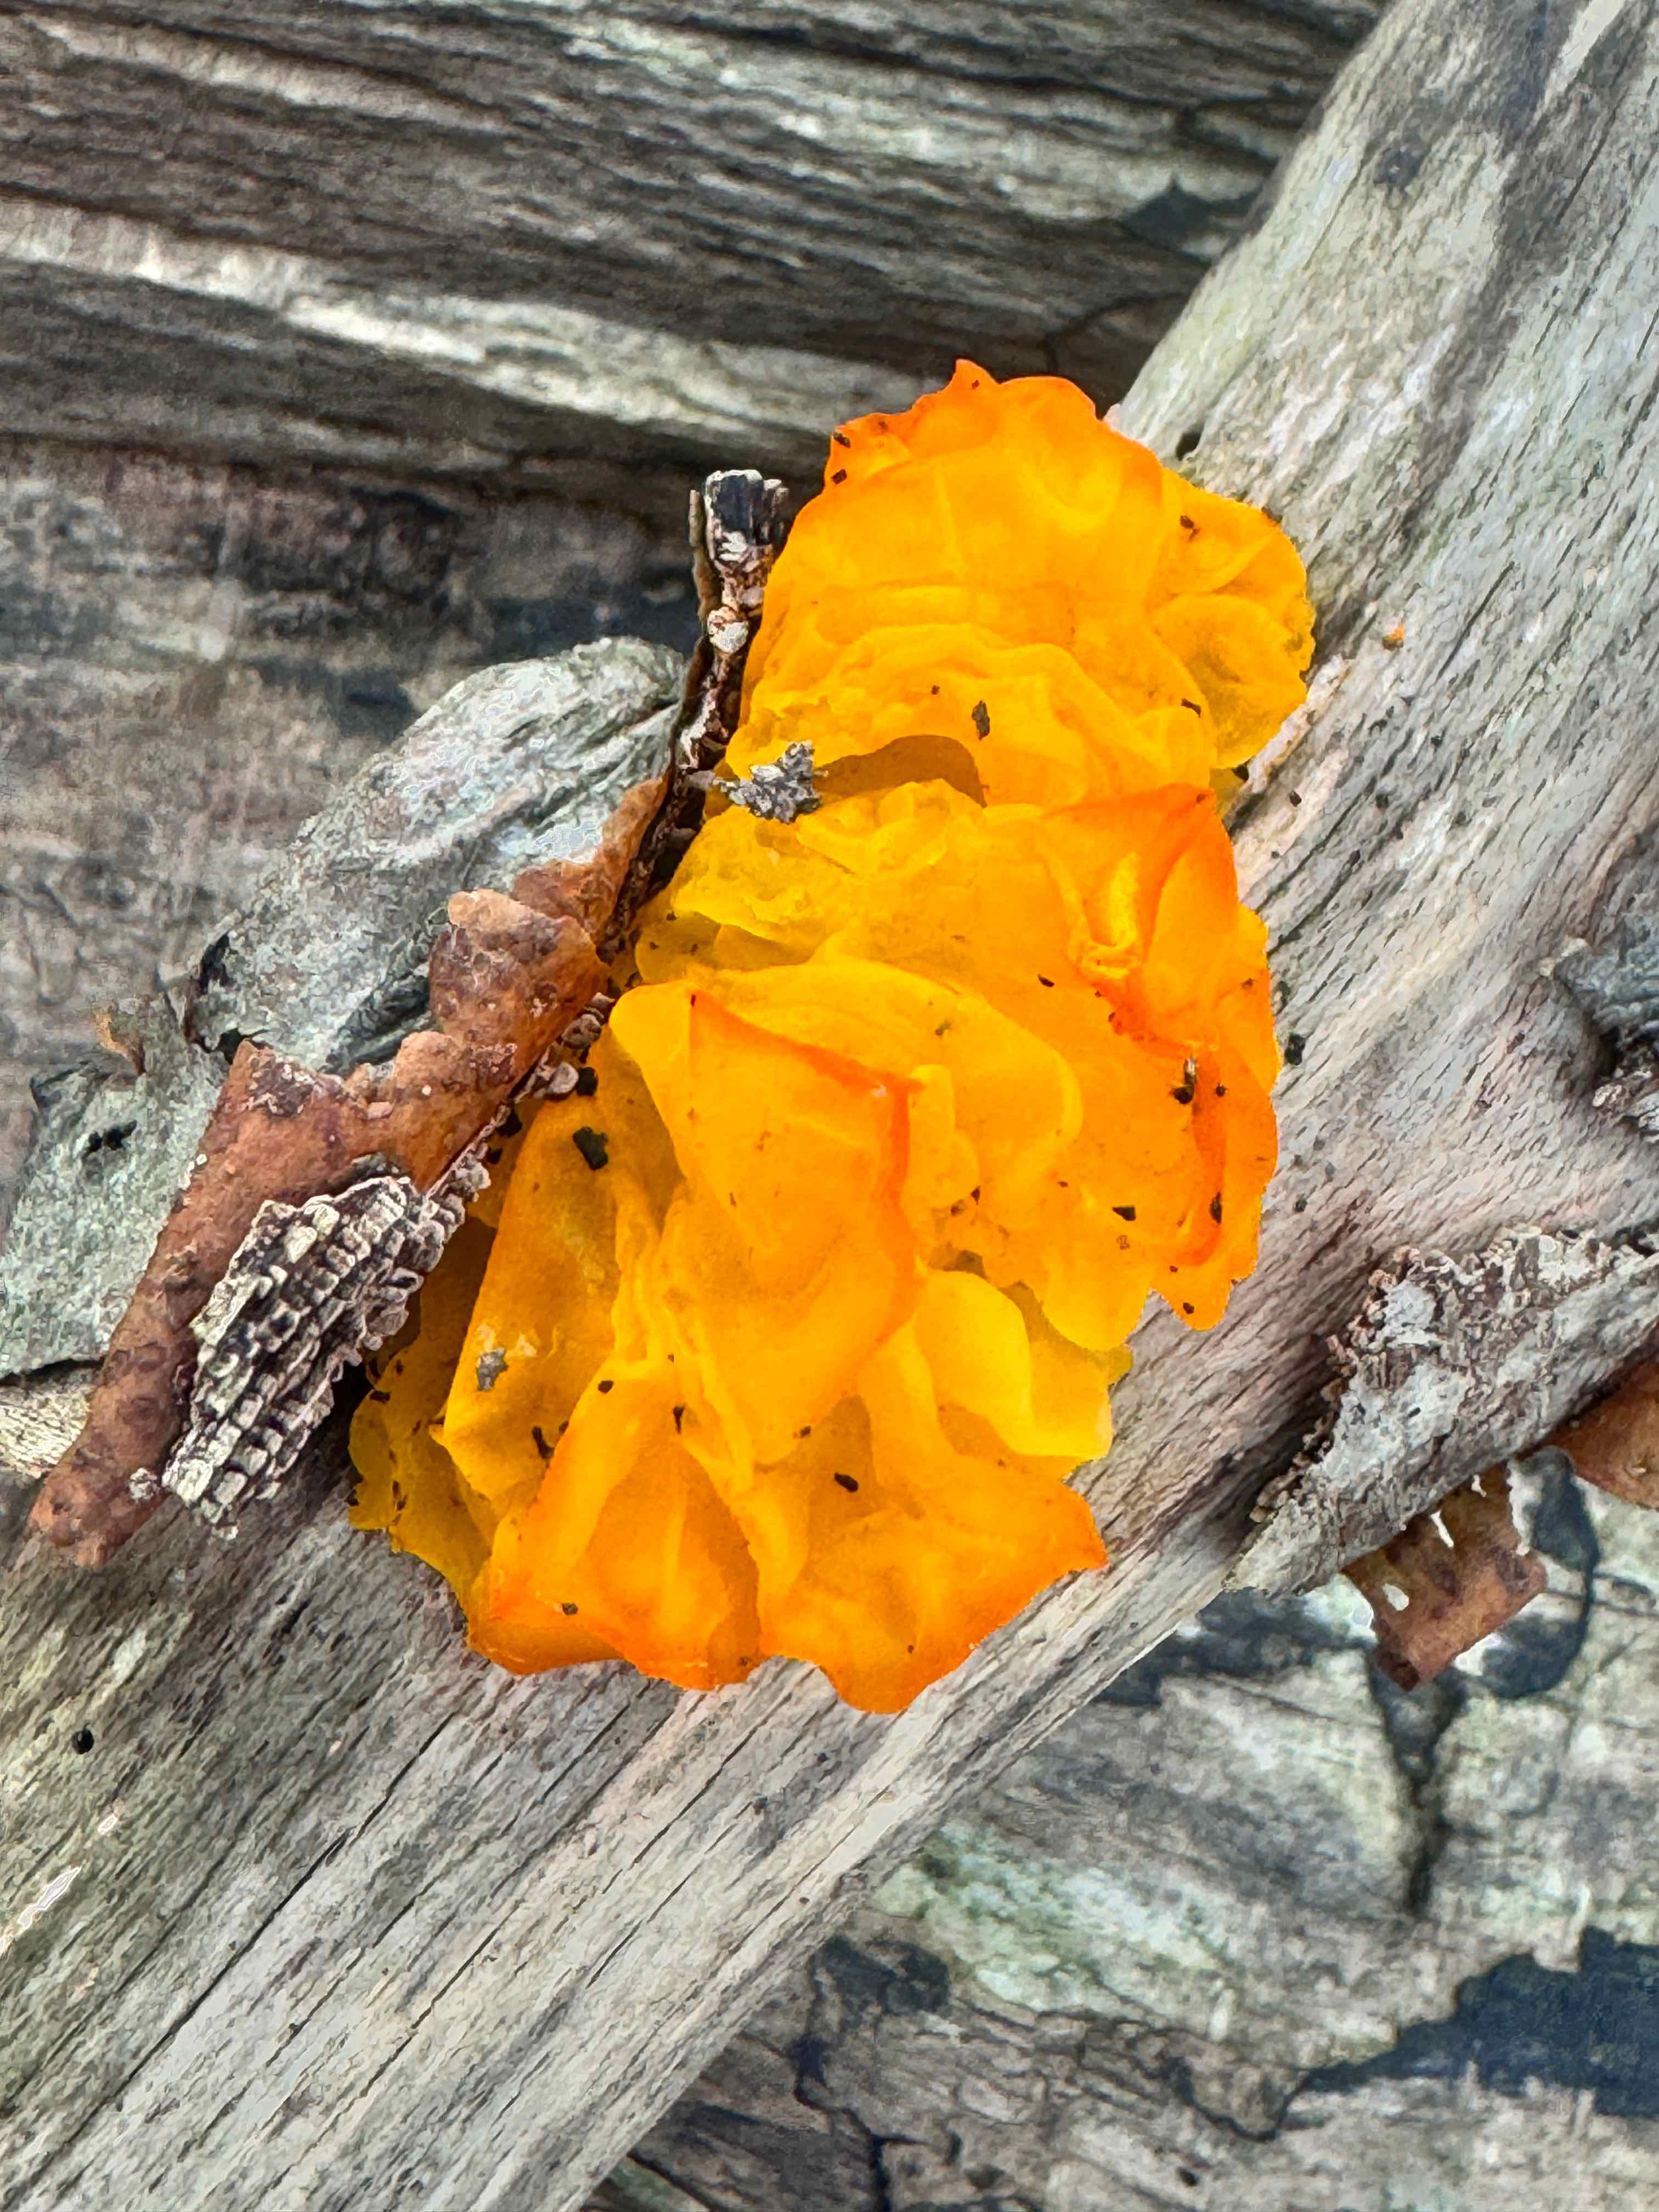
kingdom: Fungi
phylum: Basidiomycota
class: Tremellomycetes
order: Tremellales
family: Tremellaceae
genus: Tremella
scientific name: Tremella mesenterica
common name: gul bævresvamp
